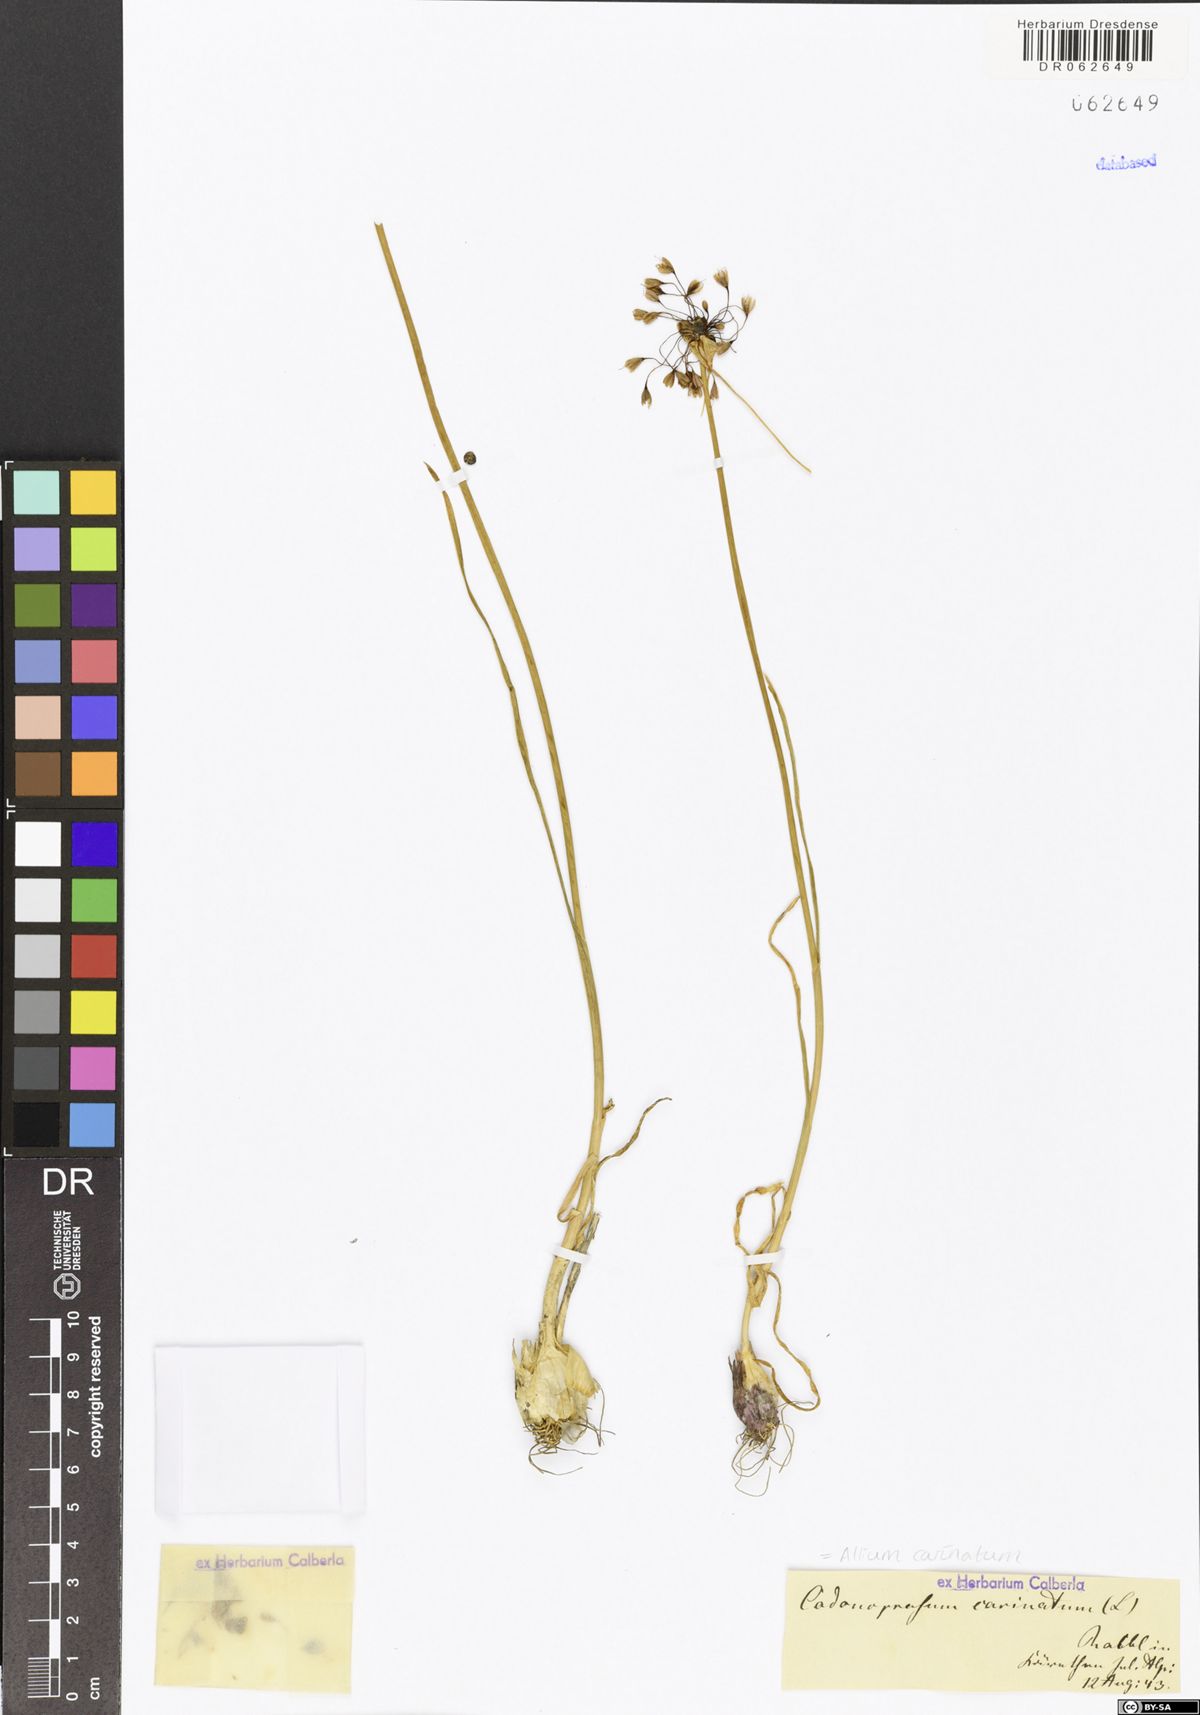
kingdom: Plantae
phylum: Tracheophyta
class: Liliopsida
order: Asparagales
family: Amaryllidaceae
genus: Allium
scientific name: Allium carinatum
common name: Keeled garlic
